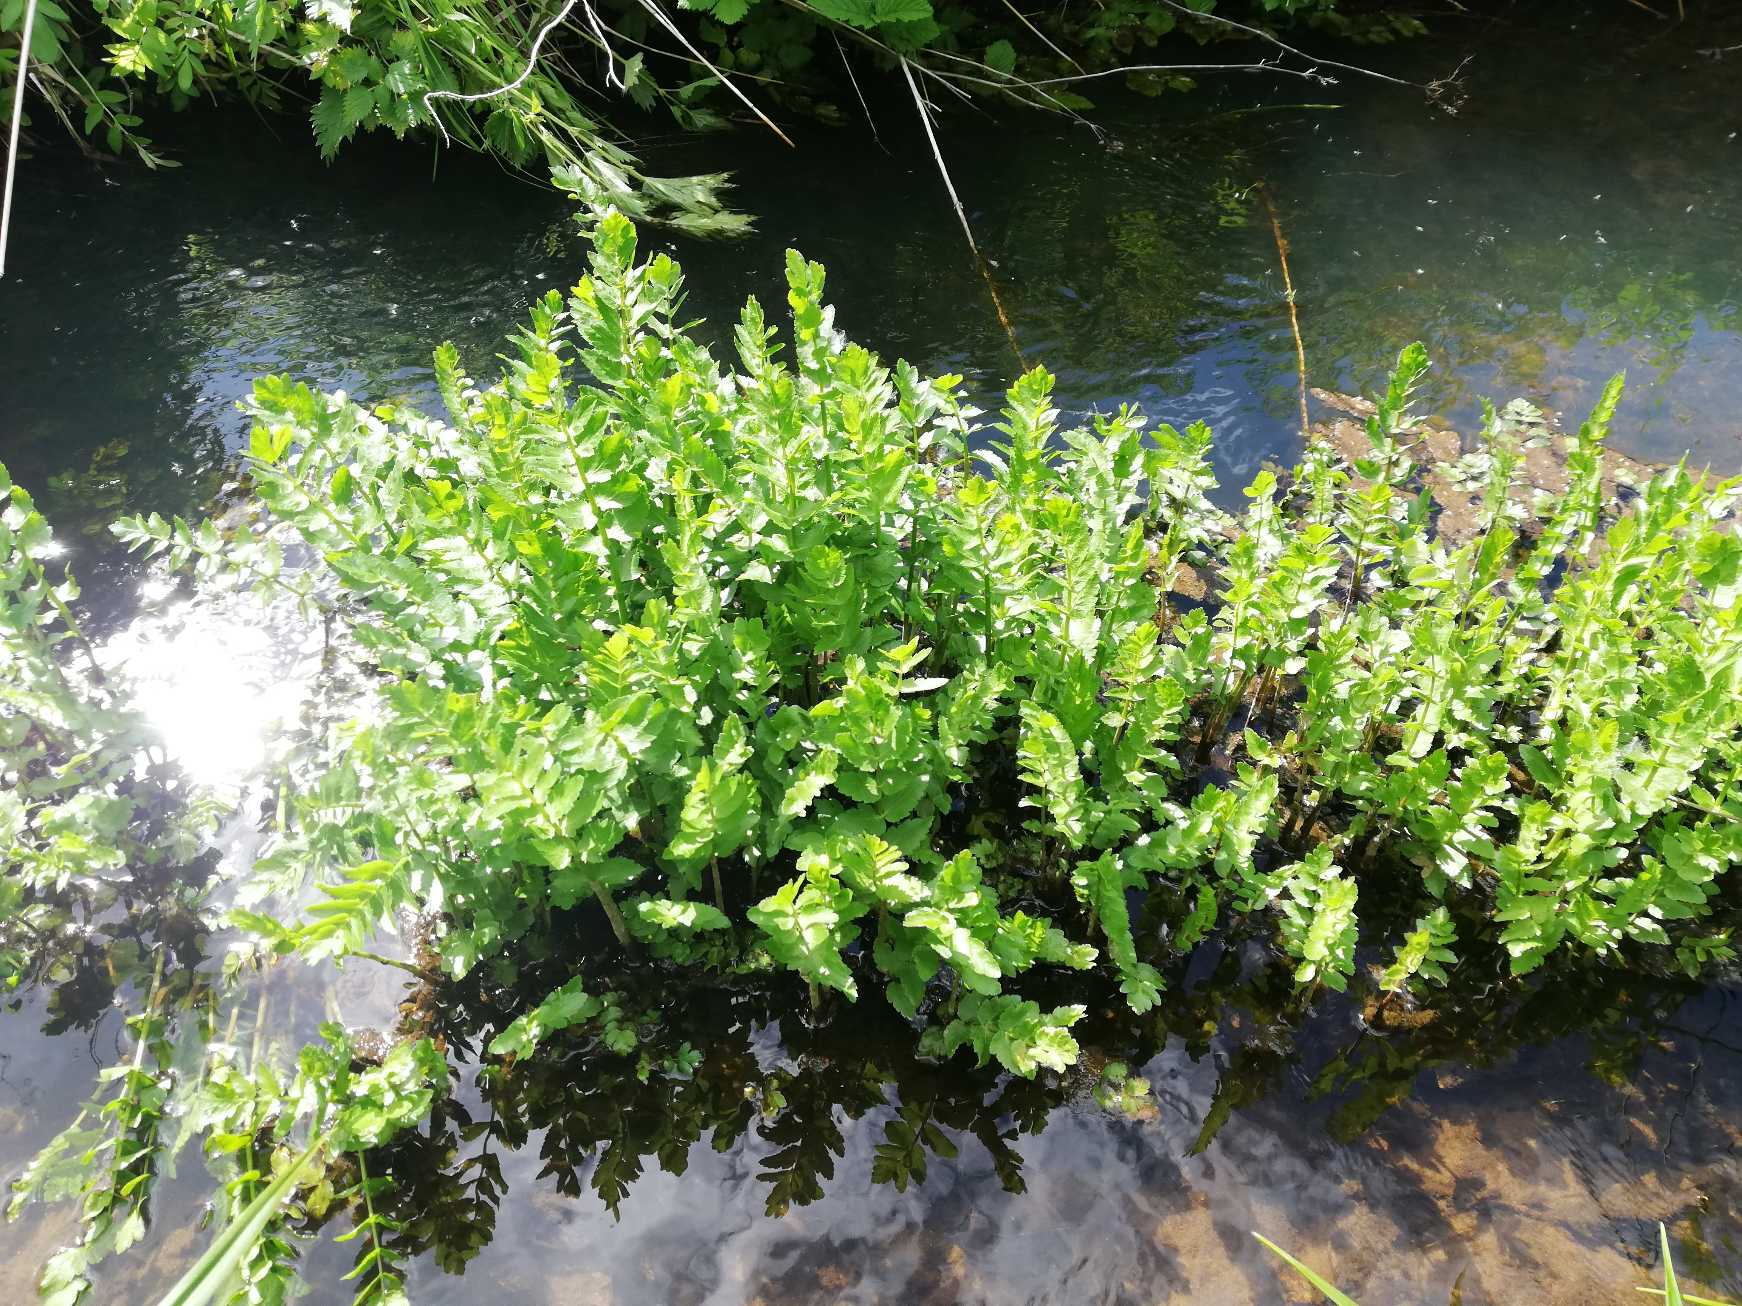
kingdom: Plantae
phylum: Tracheophyta
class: Magnoliopsida
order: Apiales
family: Apiaceae
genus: Berula
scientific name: Berula erecta
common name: Sideskærm
